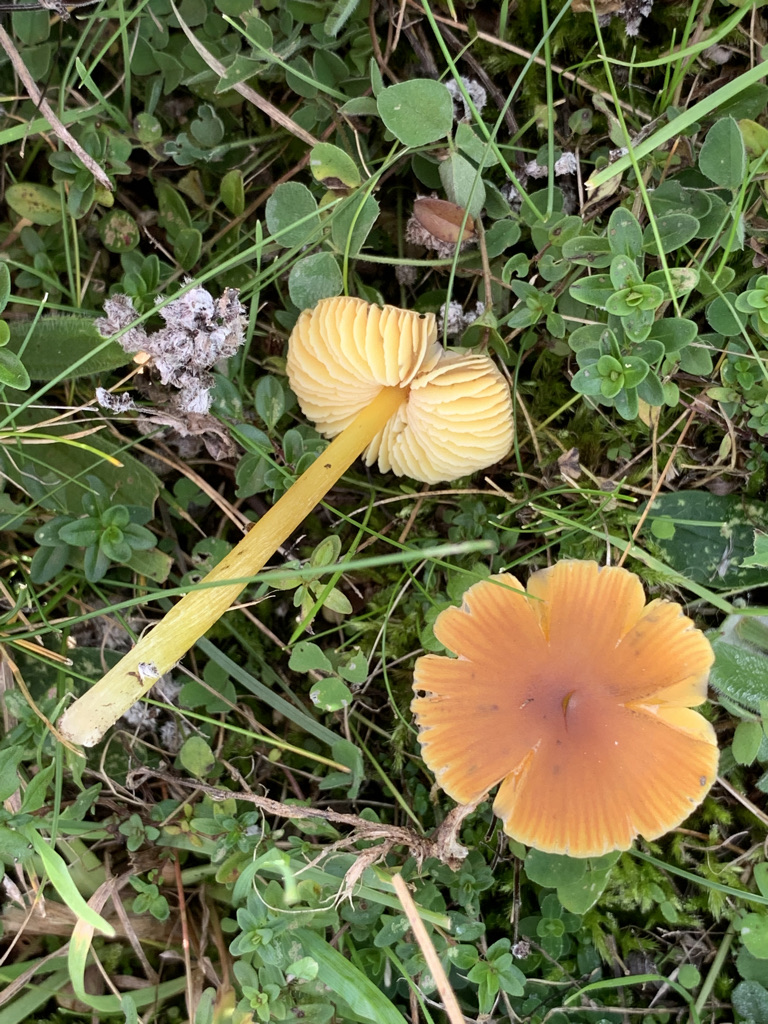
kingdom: Fungi
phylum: Basidiomycota
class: Agaricomycetes
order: Agaricales
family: Hygrophoraceae
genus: Hygrocybe
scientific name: Hygrocybe conica
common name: kegle-vokshat
